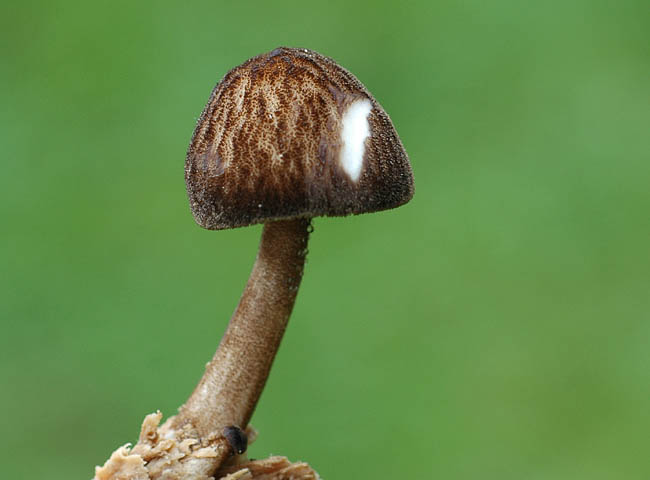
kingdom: Fungi
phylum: Basidiomycota
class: Agaricomycetes
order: Agaricales
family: Pluteaceae
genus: Pluteus
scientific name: Pluteus umbrosus
